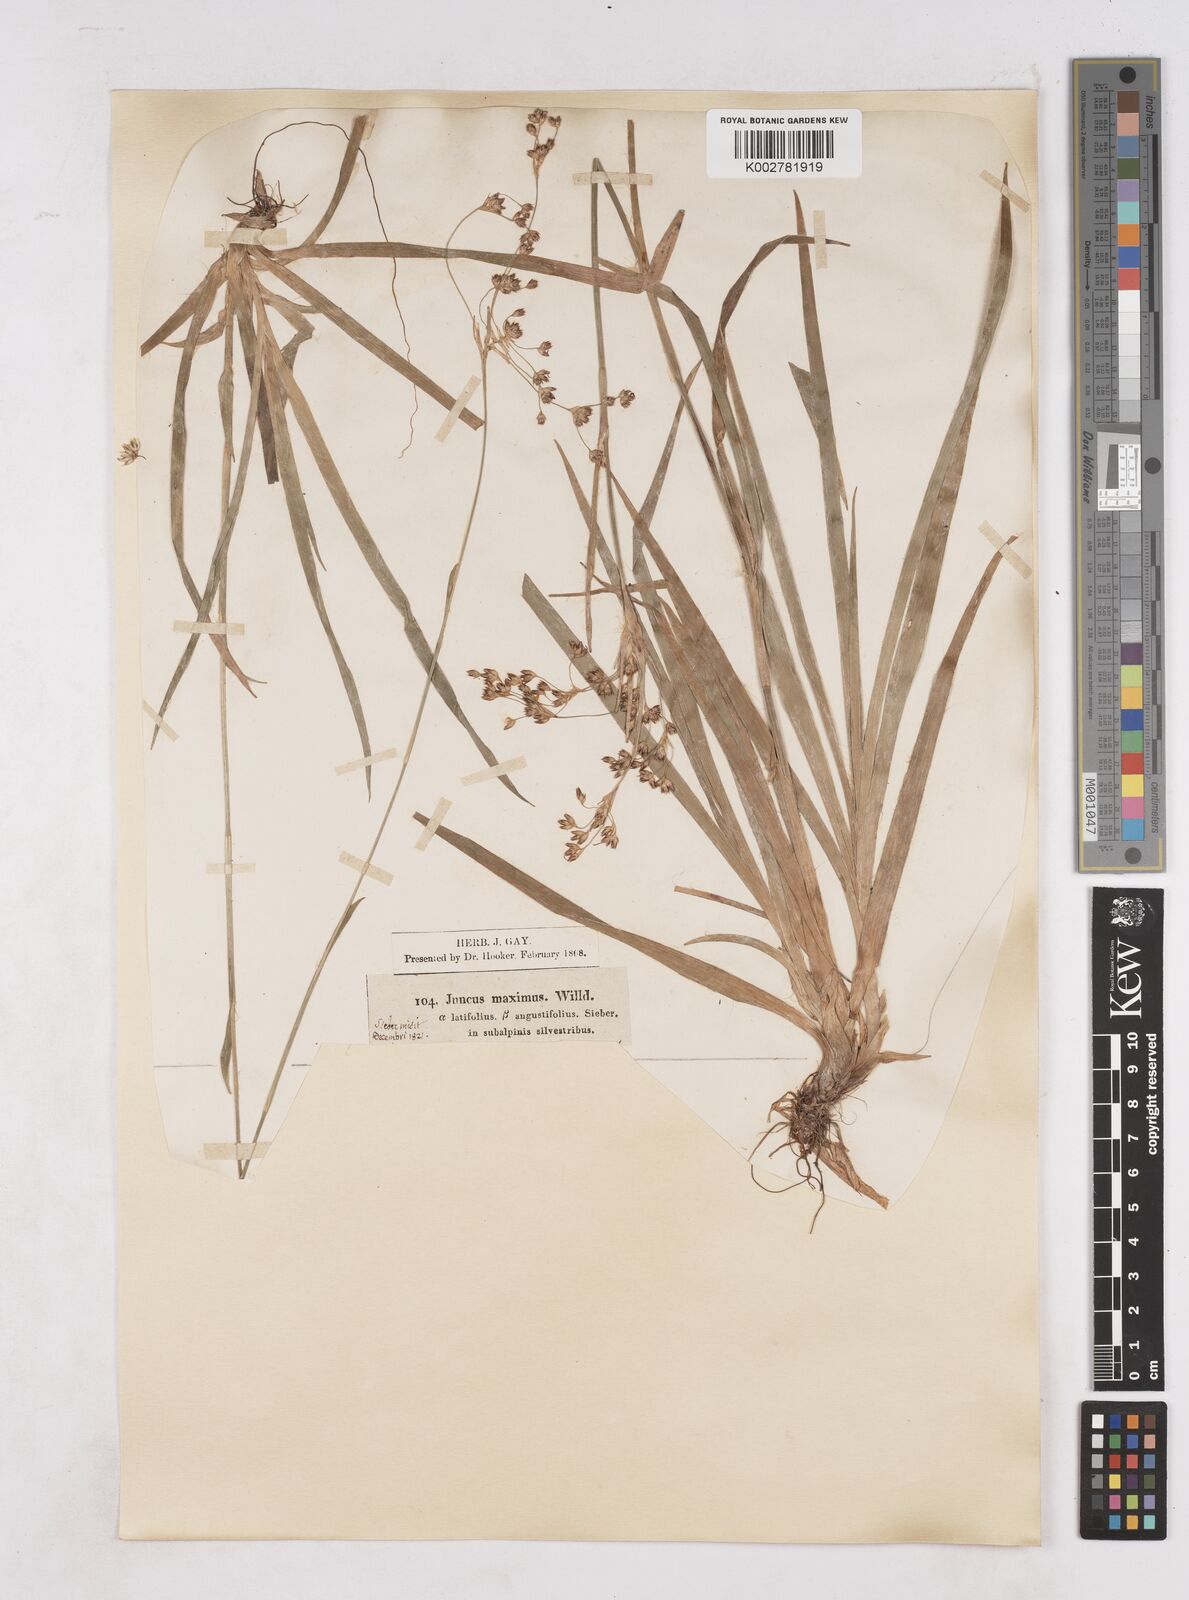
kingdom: Plantae
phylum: Tracheophyta
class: Liliopsida
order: Poales
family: Juncaceae
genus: Luzula
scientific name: Luzula sylvatica
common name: Great wood-rush
